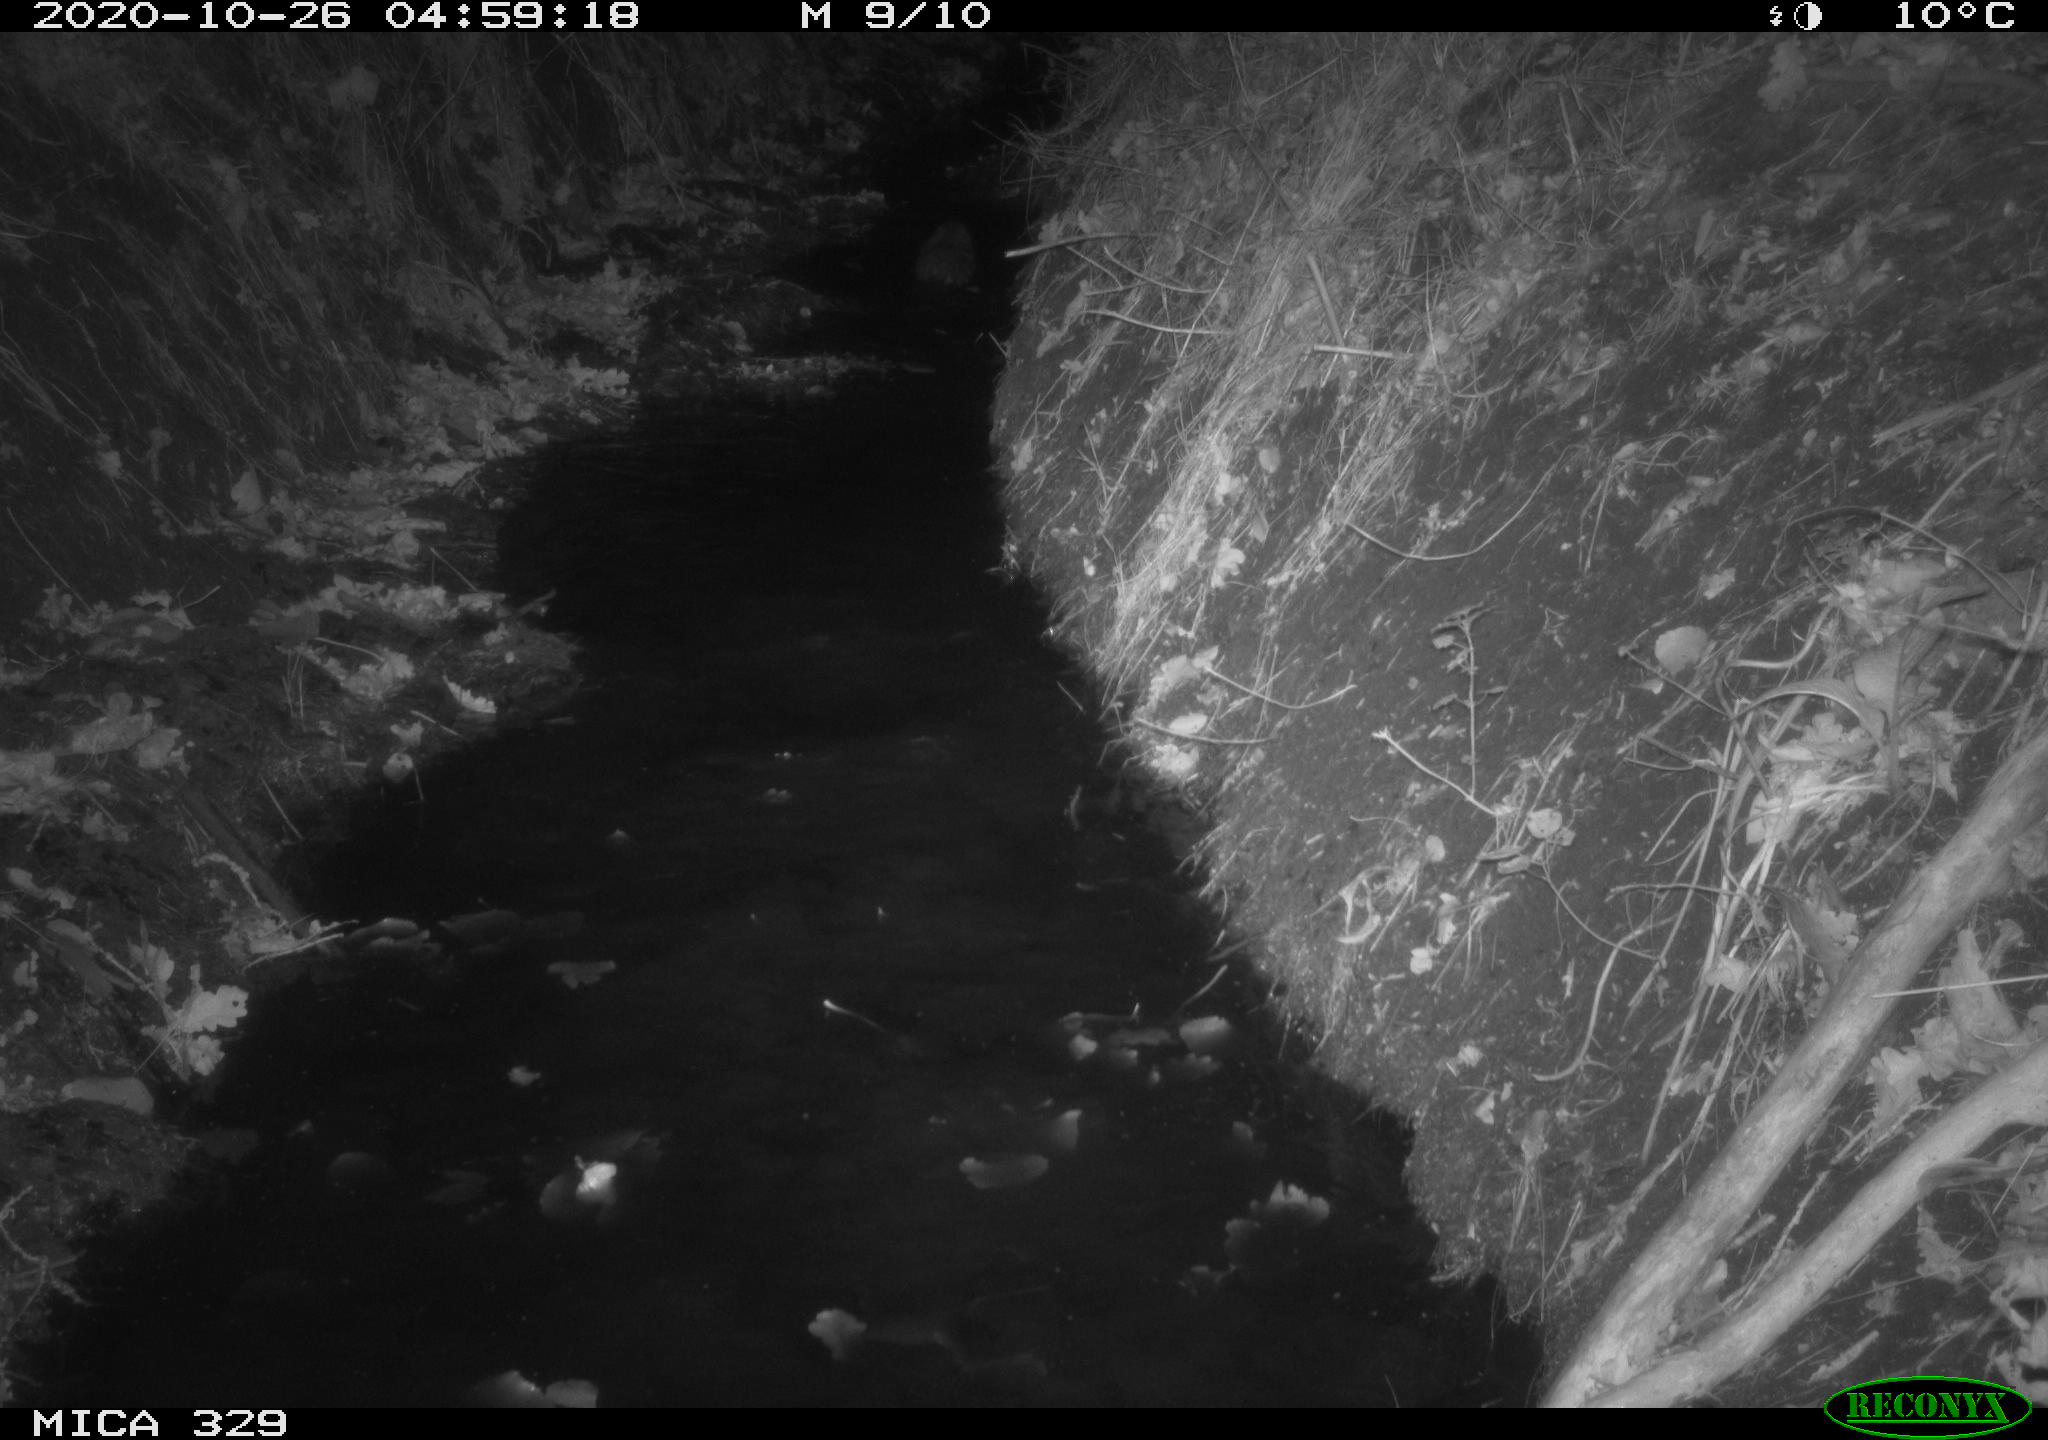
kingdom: Animalia
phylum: Chordata
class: Mammalia
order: Rodentia
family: Myocastoridae
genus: Myocastor
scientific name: Myocastor coypus
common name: Coypu
